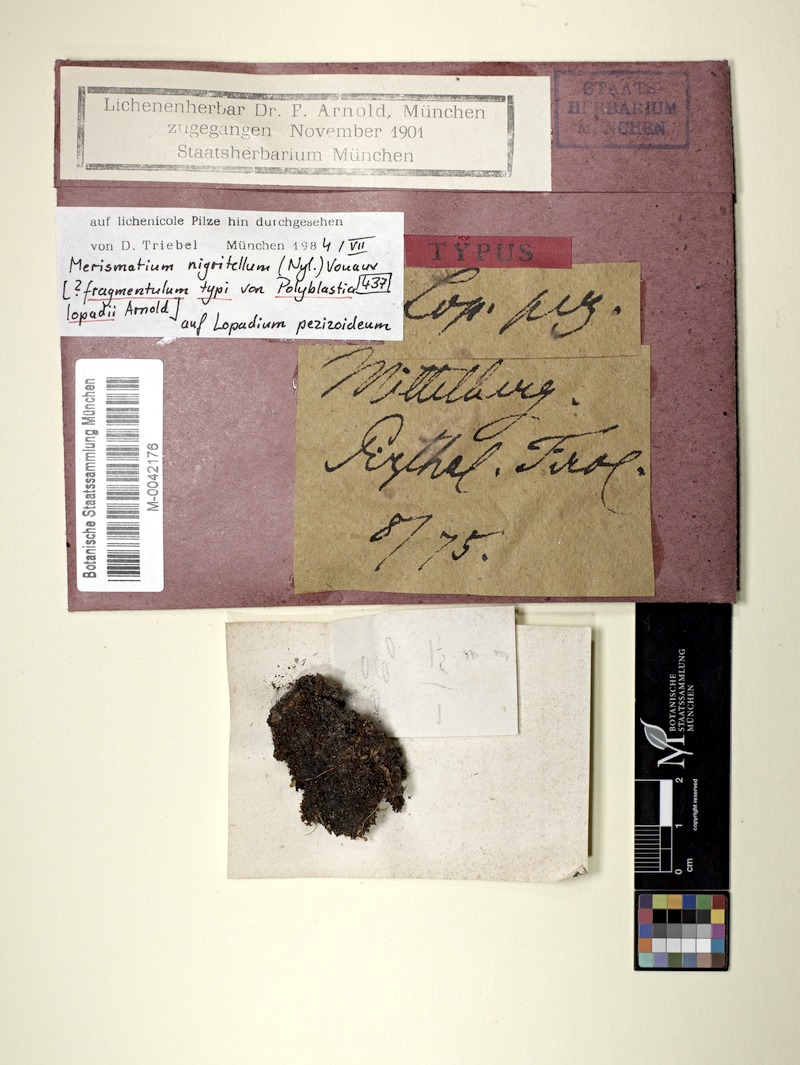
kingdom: Fungi
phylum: Ascomycota
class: Eurotiomycetes
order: Verrucariales
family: Verrucariaceae
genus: Merismatium
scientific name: Merismatium nigritellum
